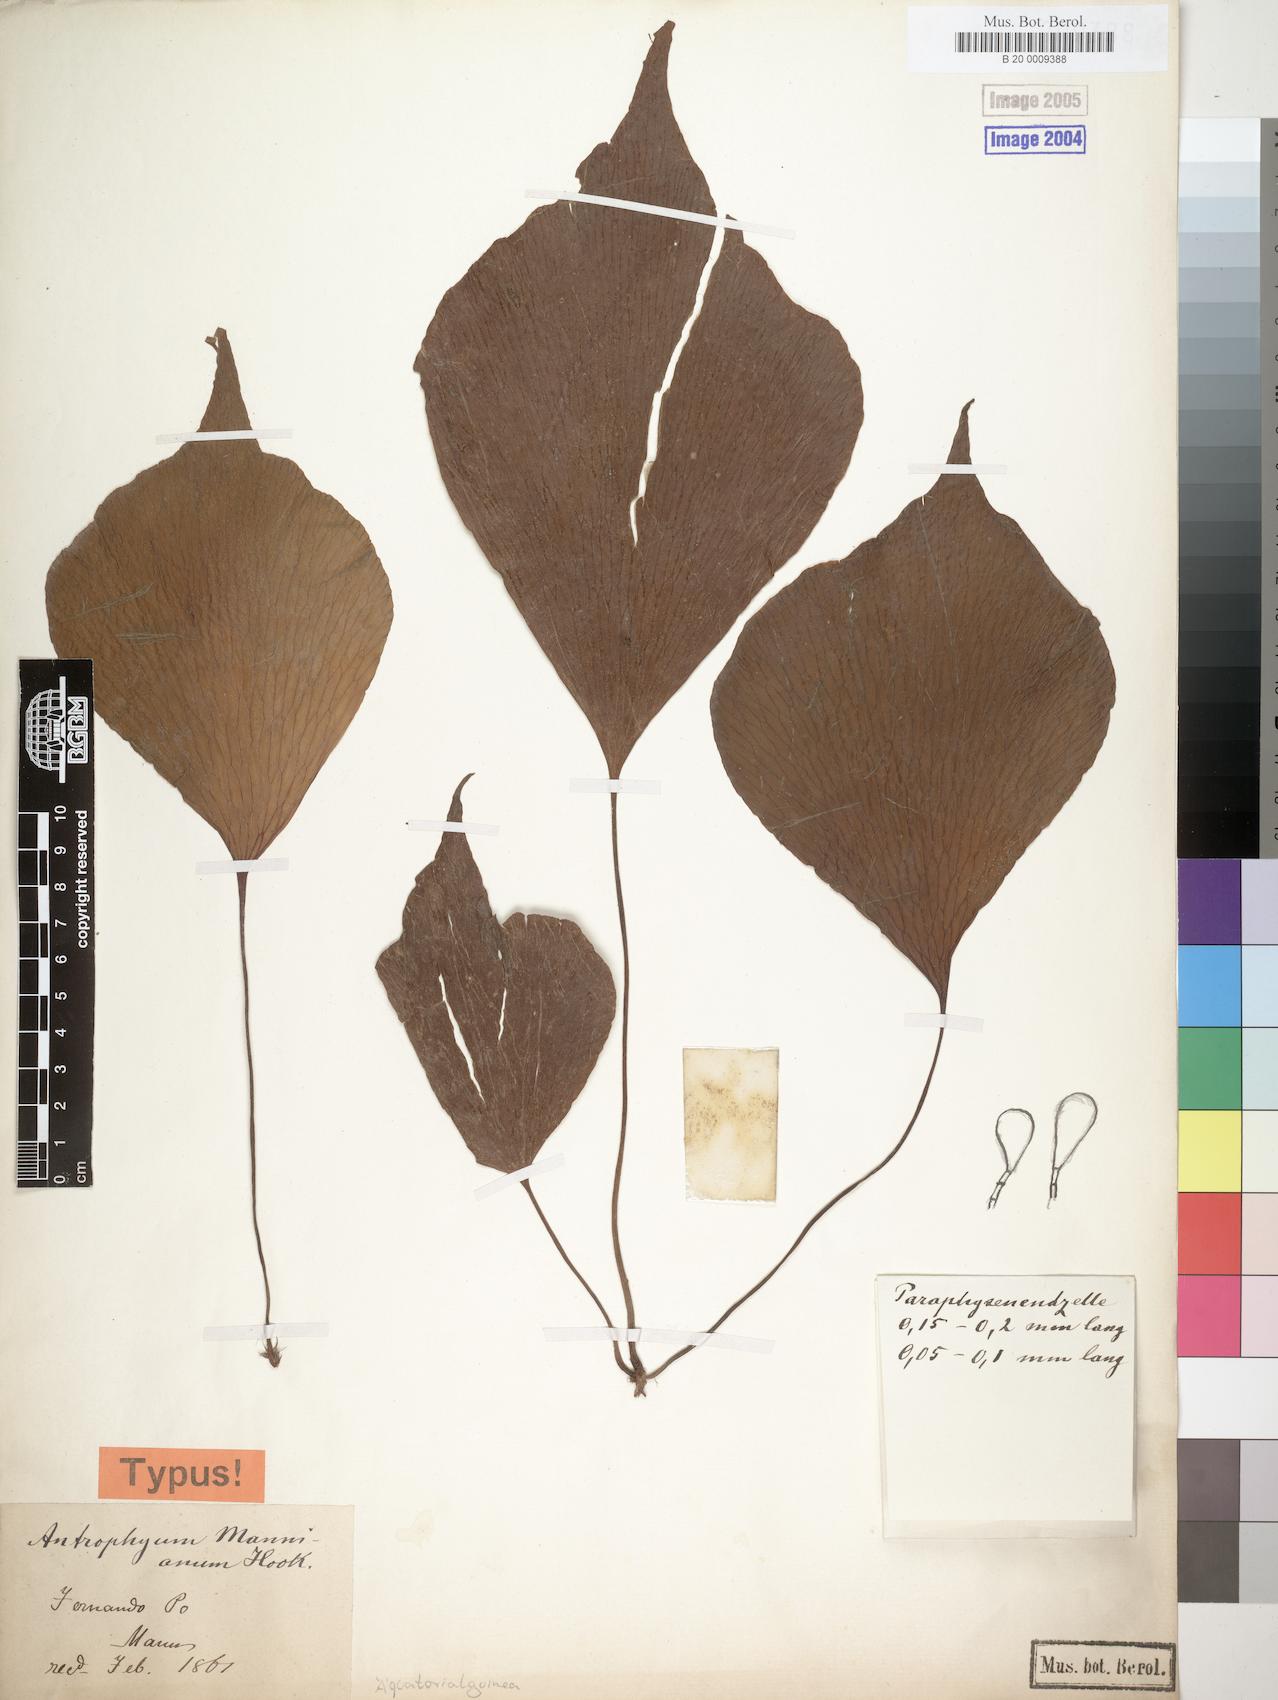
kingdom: Plantae
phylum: Tracheophyta
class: Polypodiopsida
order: Polypodiales
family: Pteridaceae
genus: Antrophyopsis
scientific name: Antrophyopsis manniana
